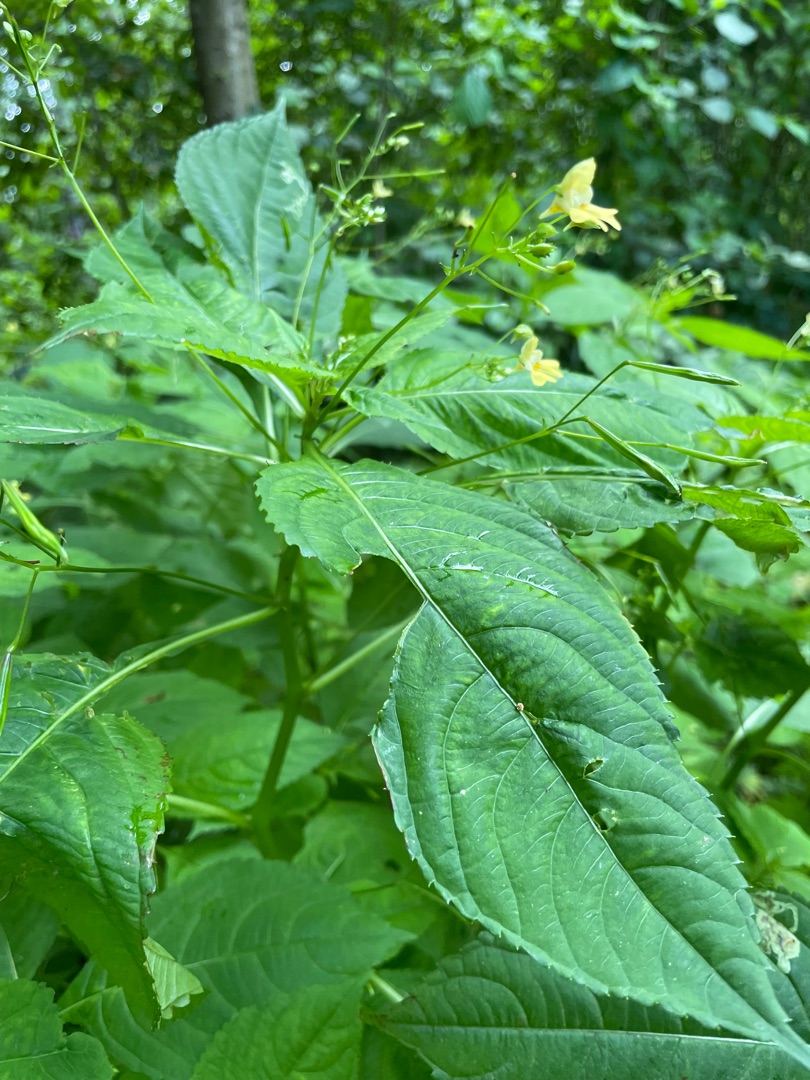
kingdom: Plantae
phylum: Tracheophyta
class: Magnoliopsida
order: Ericales
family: Balsaminaceae
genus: Impatiens
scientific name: Impatiens parviflora
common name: Småblomstret balsamin
